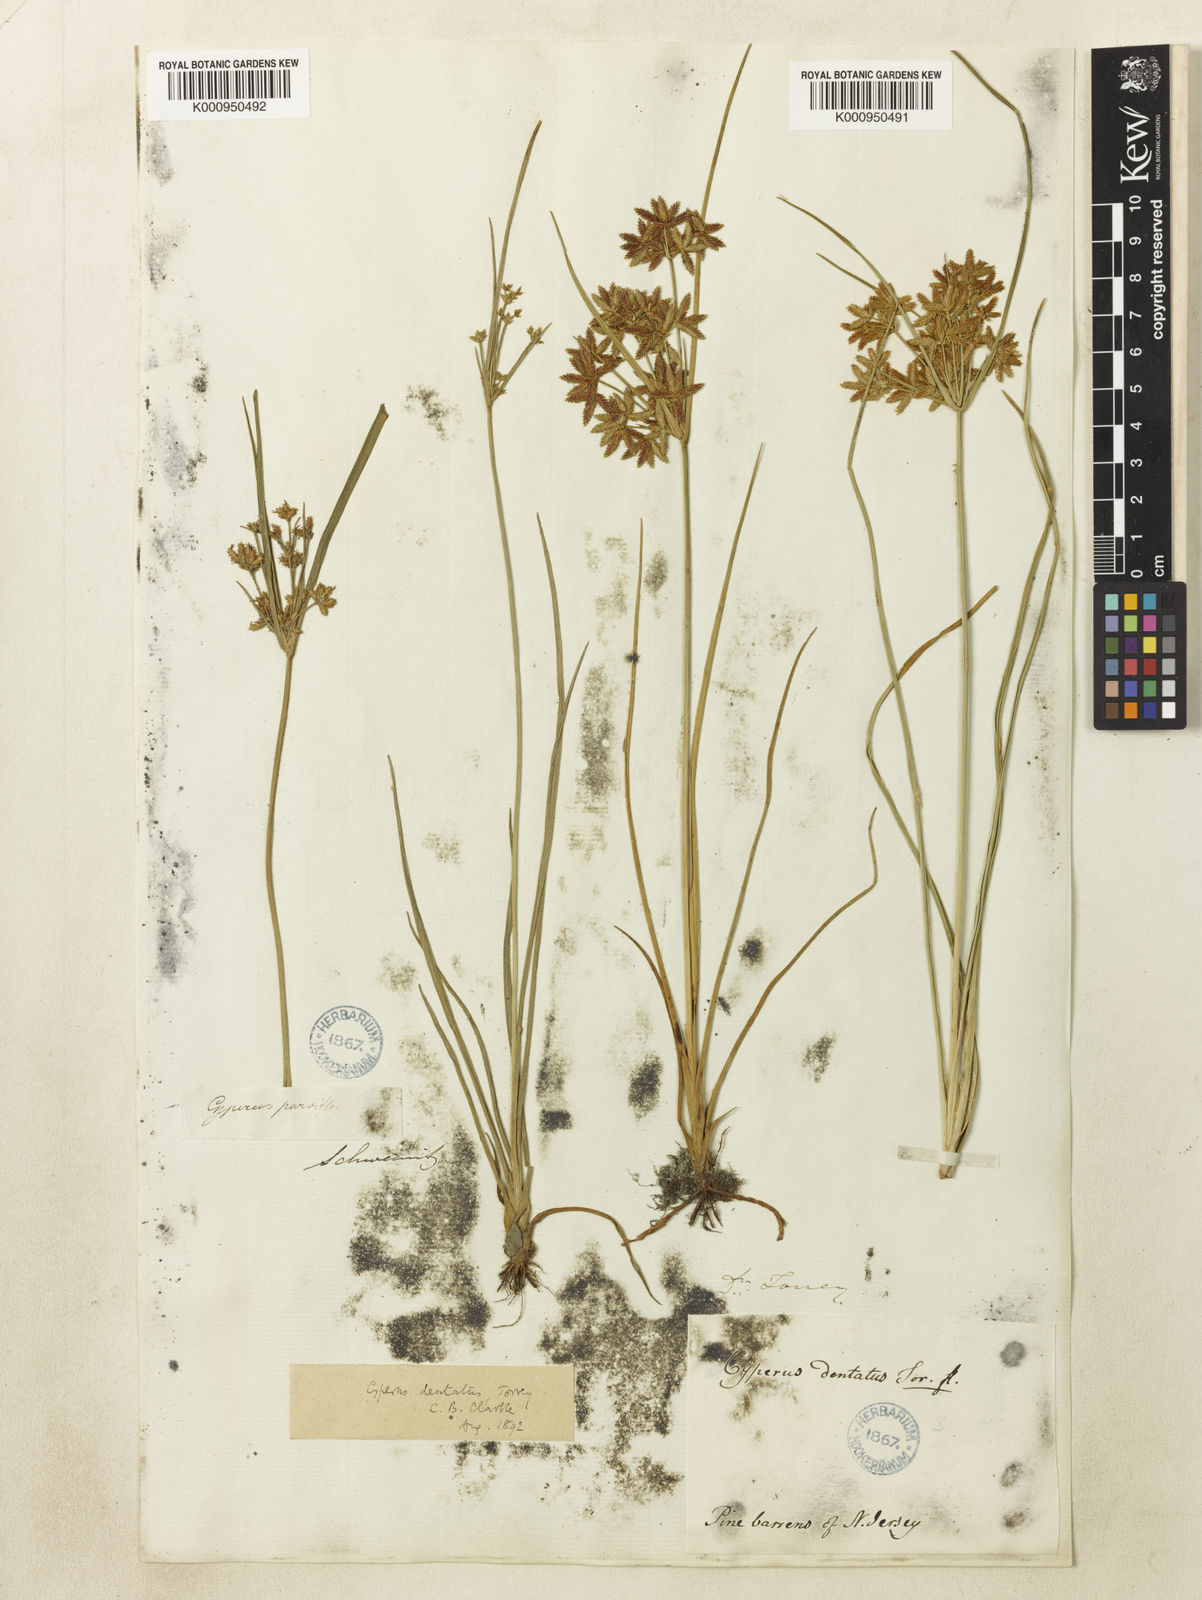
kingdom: Plantae
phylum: Tracheophyta
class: Liliopsida
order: Poales
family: Cyperaceae
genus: Cyperus
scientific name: Cyperus dentatus
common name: Dentate umbrella sedge
